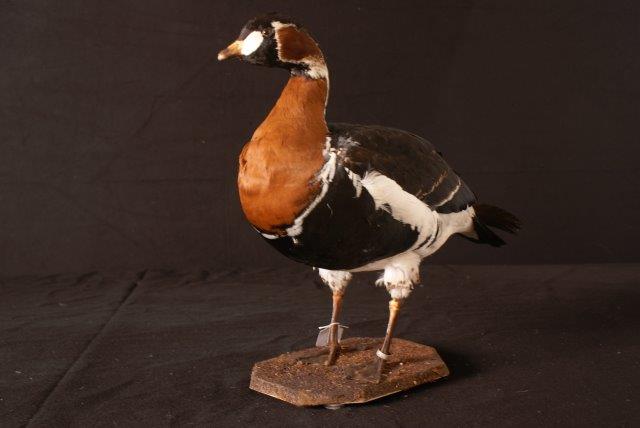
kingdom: Animalia
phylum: Chordata
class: Aves
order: Anseriformes
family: Anatidae
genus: Branta
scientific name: Branta ruficollis
